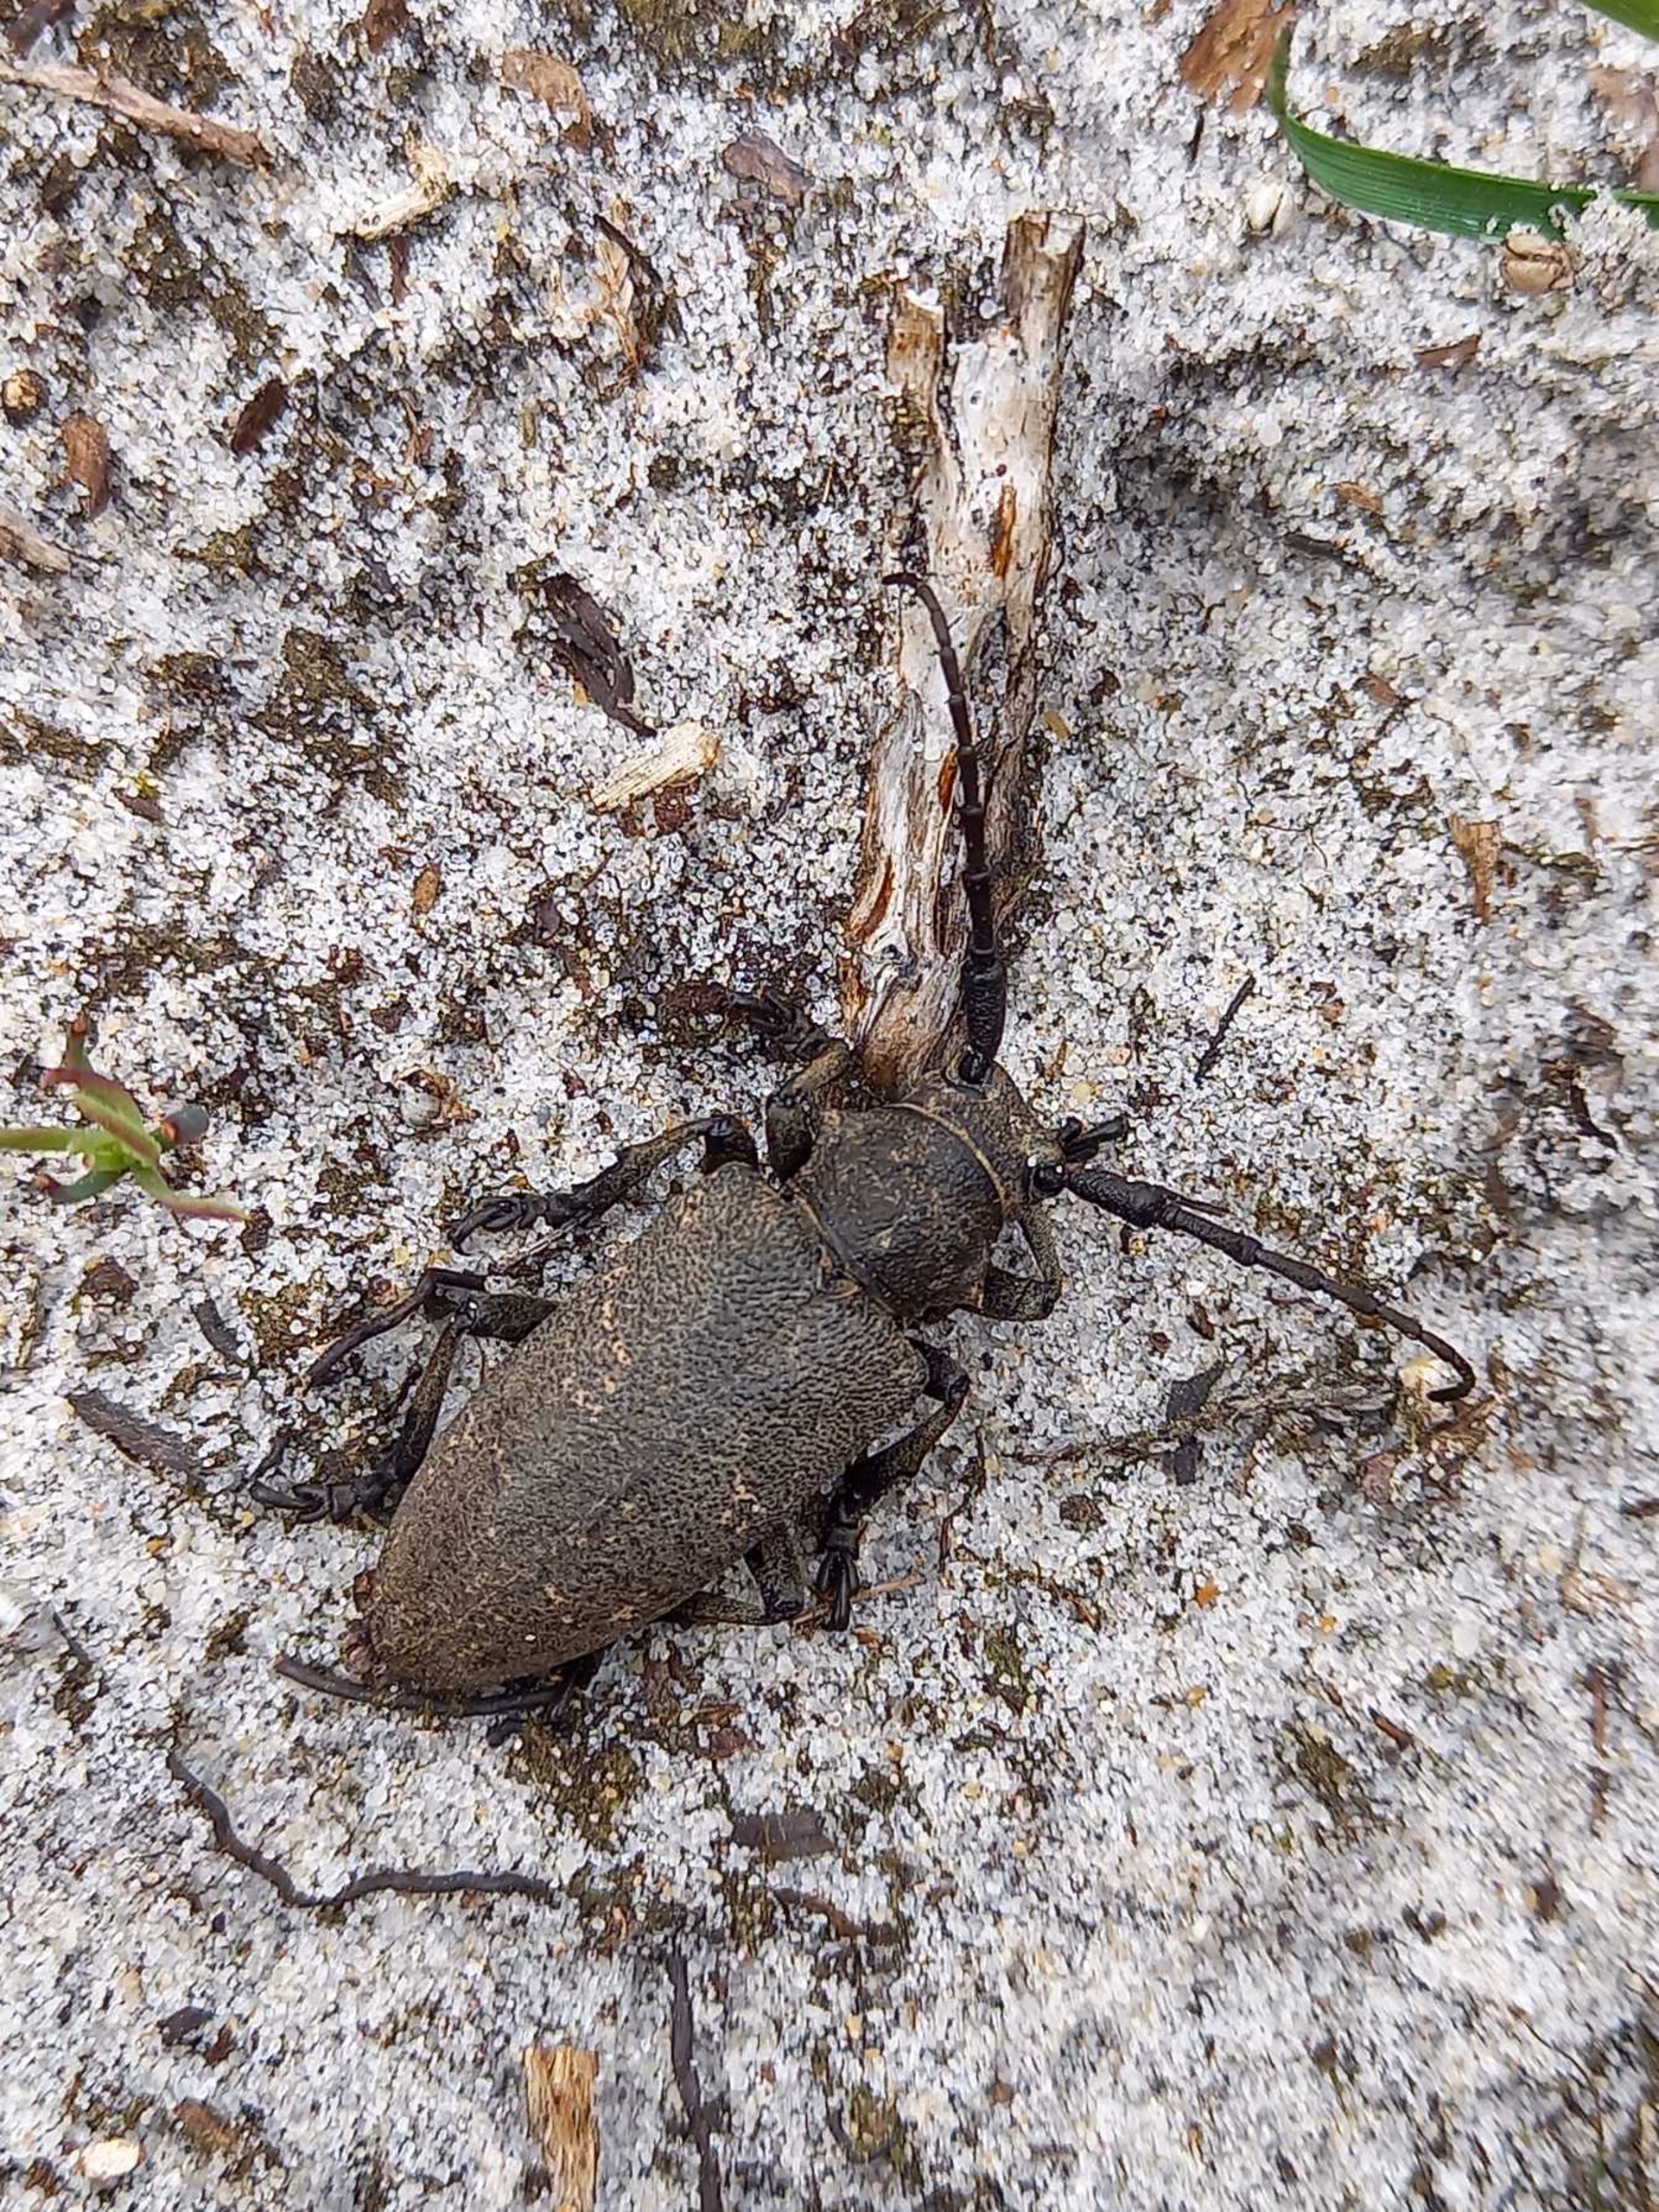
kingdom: Animalia
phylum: Arthropoda
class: Insecta
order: Coleoptera
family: Cerambycidae
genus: Lamia
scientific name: Lamia textor
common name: Væver
